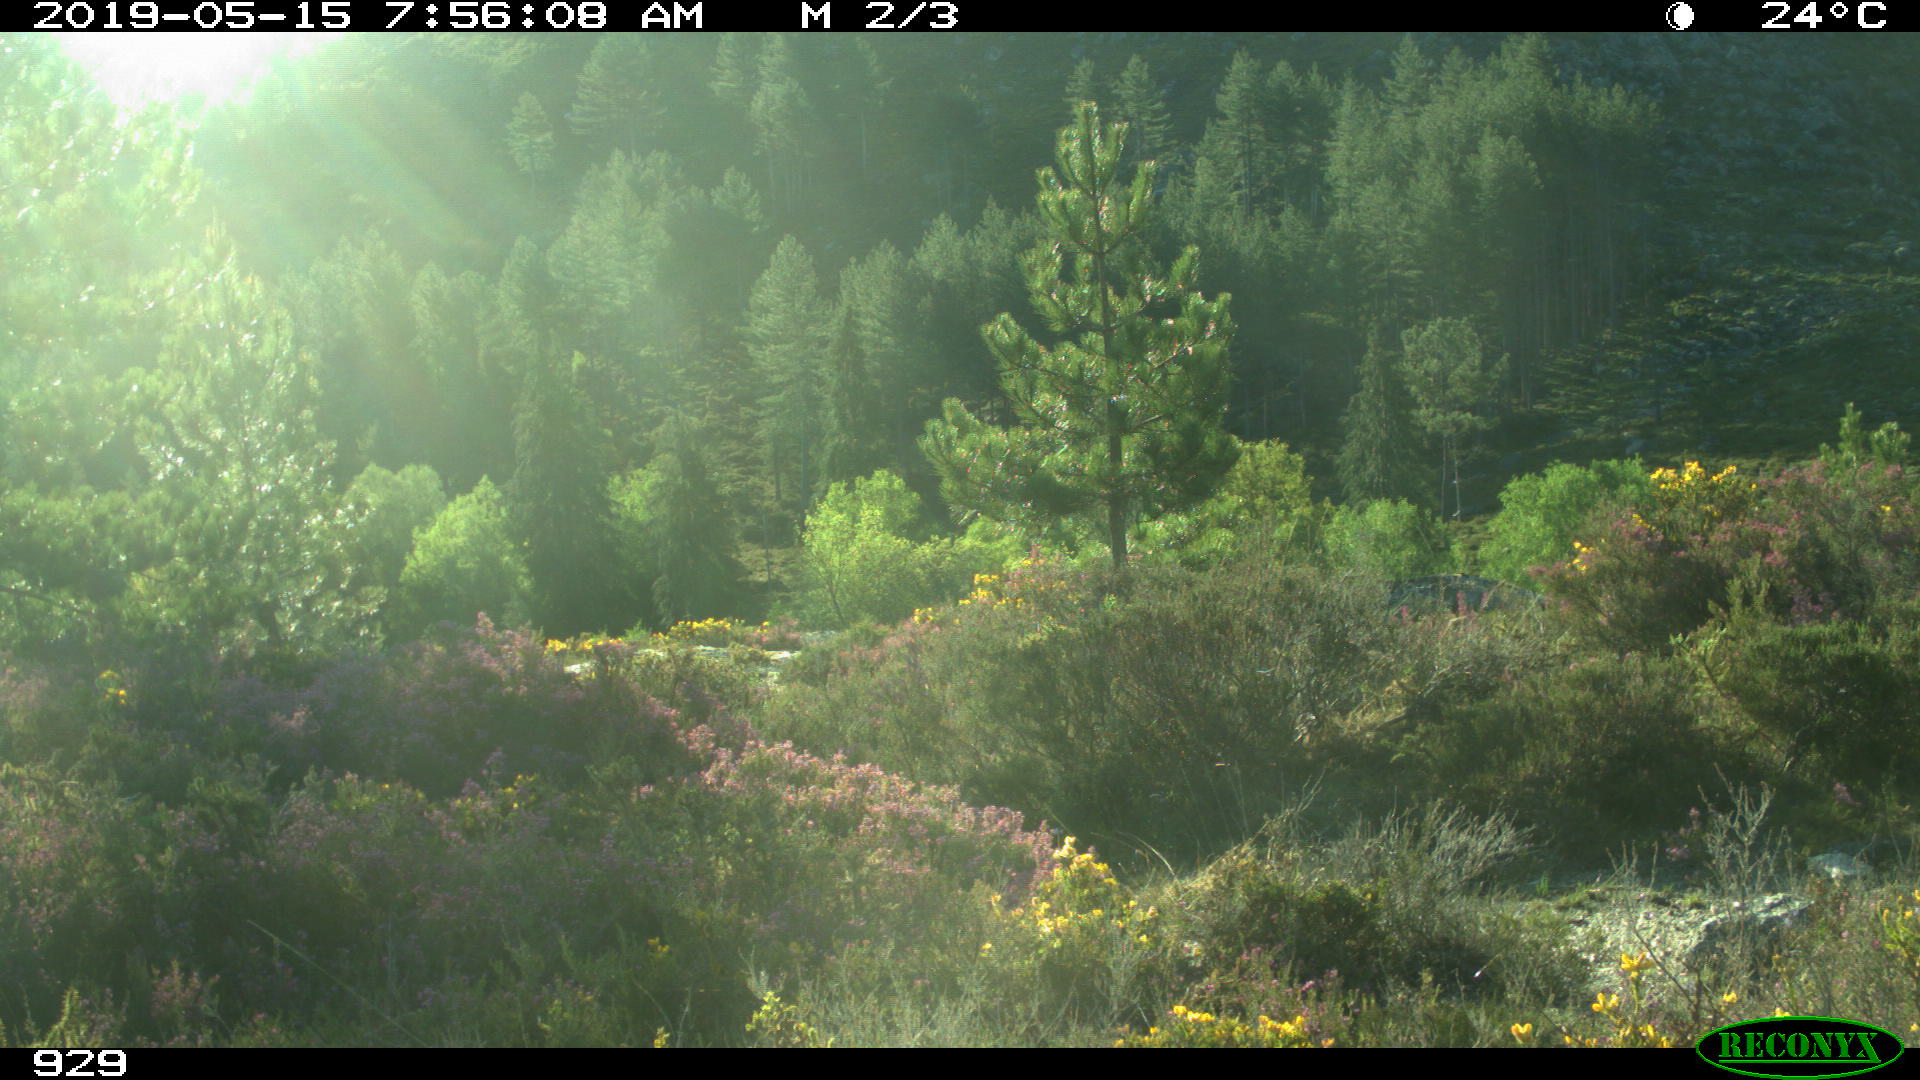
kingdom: Animalia
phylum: Chordata
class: Mammalia
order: Artiodactyla
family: Cervidae
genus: Capreolus
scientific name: Capreolus capreolus
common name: Western roe deer
